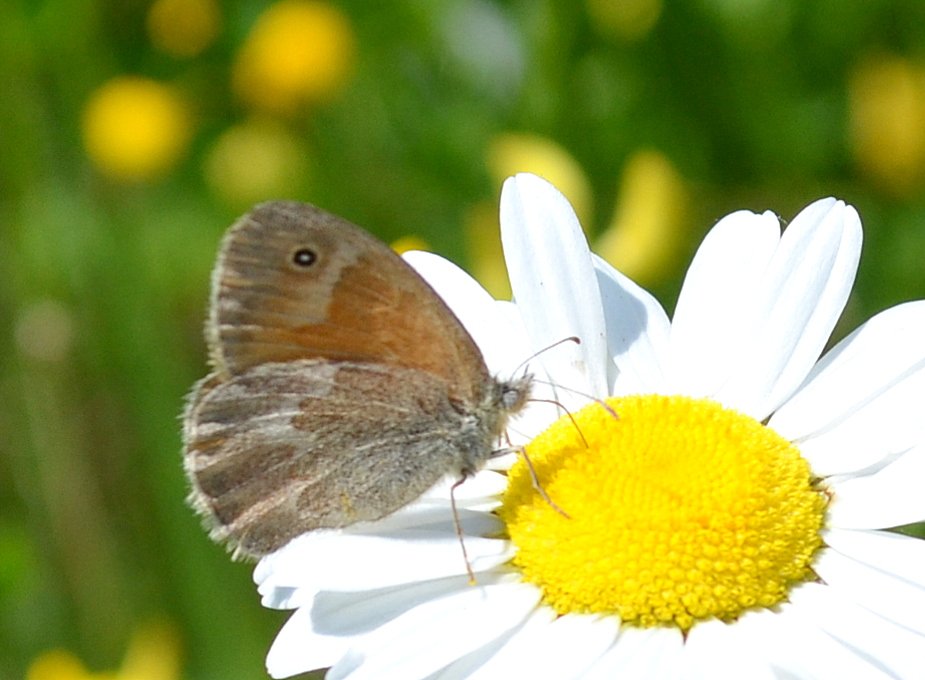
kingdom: Animalia
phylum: Arthropoda
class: Insecta
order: Lepidoptera
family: Nymphalidae
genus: Coenonympha
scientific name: Coenonympha tullia
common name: Large Heath
